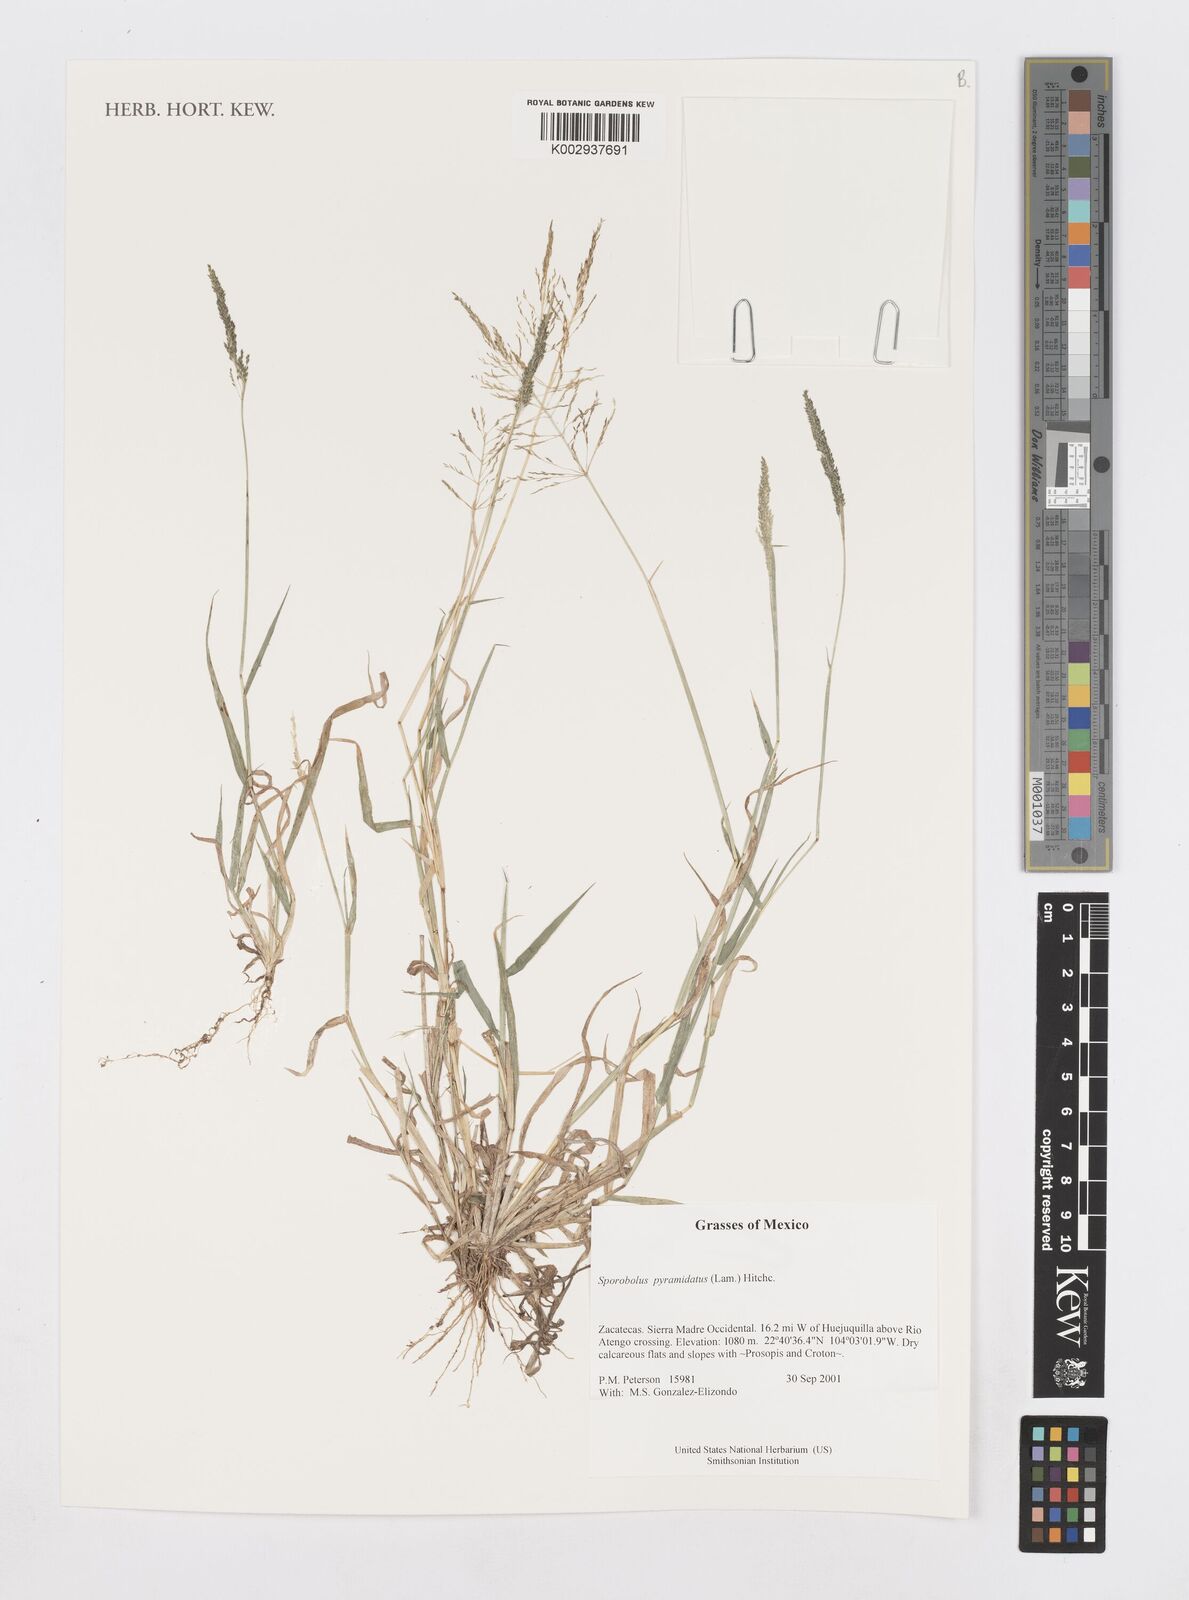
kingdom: Plantae
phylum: Tracheophyta
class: Liliopsida
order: Poales
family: Poaceae
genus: Sporobolus
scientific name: Sporobolus pyramidatus
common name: Whorled dropseed
